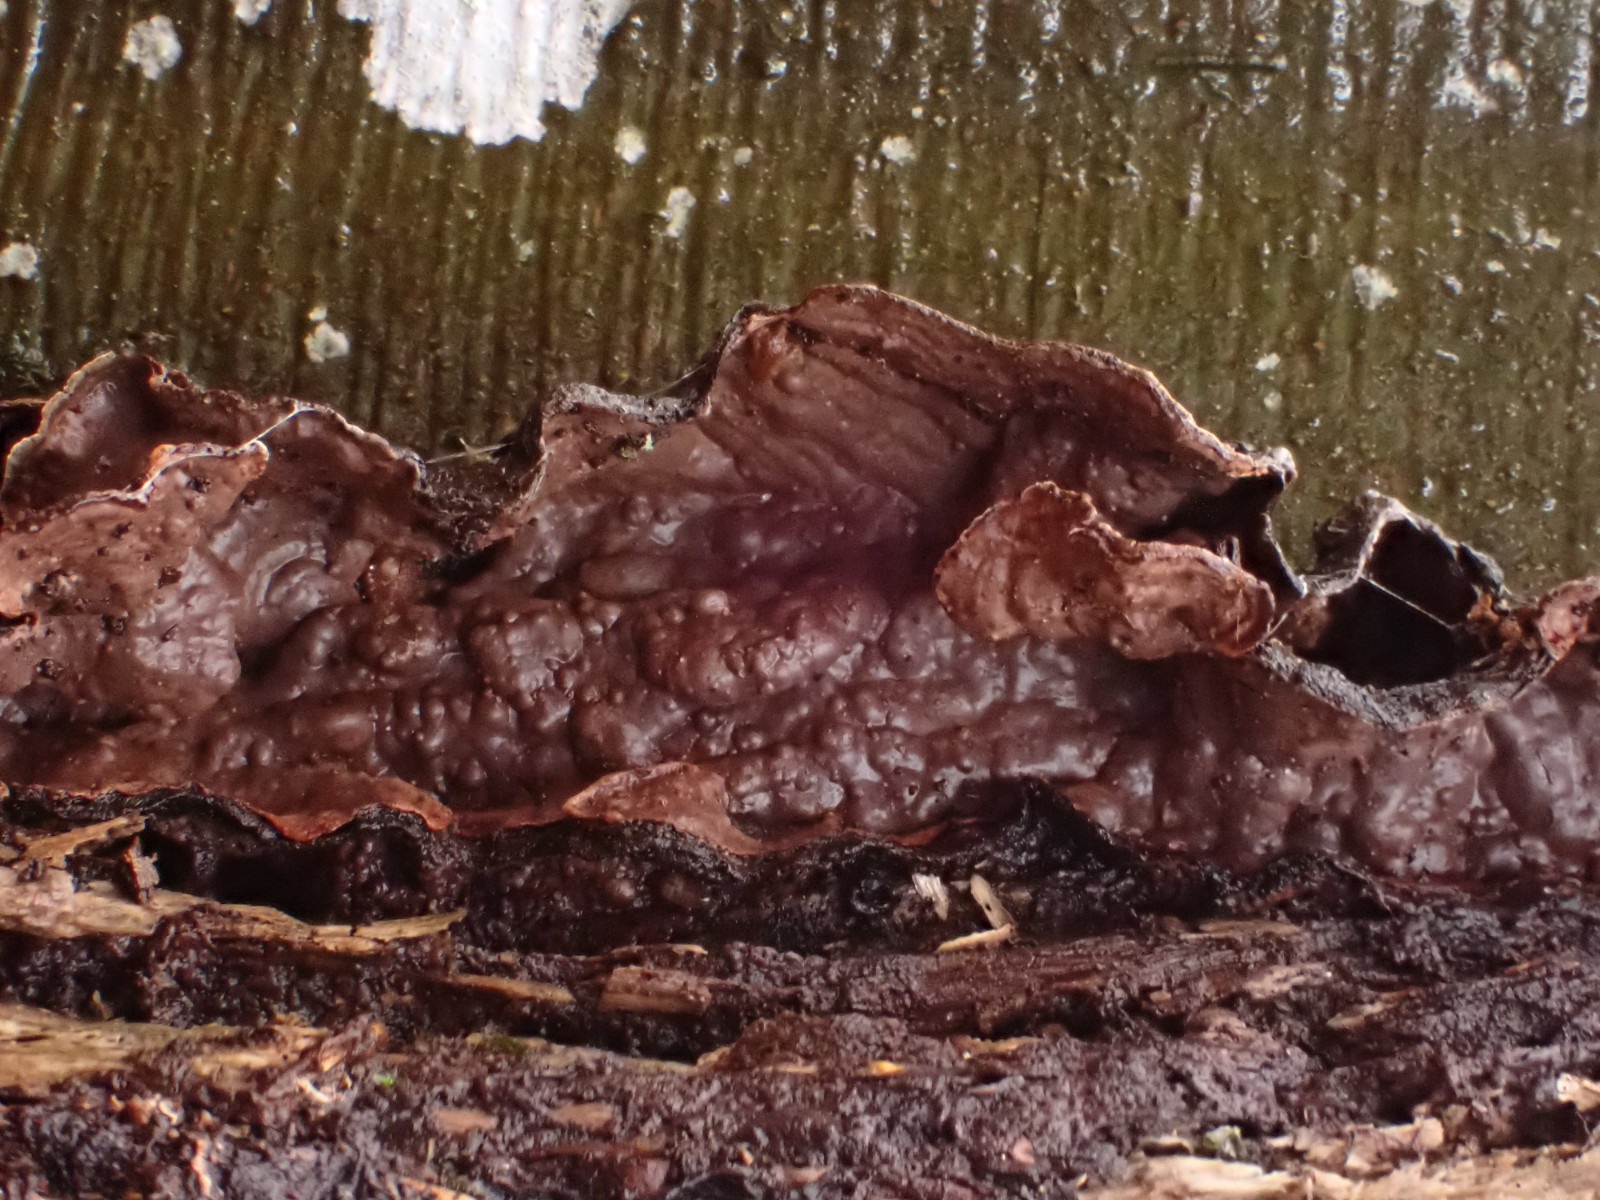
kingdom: Fungi
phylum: Basidiomycota
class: Agaricomycetes
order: Hymenochaetales
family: Hymenochaetaceae
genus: Hymenochaete
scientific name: Hymenochaete rubiginosa
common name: stiv ruslædersvamp
